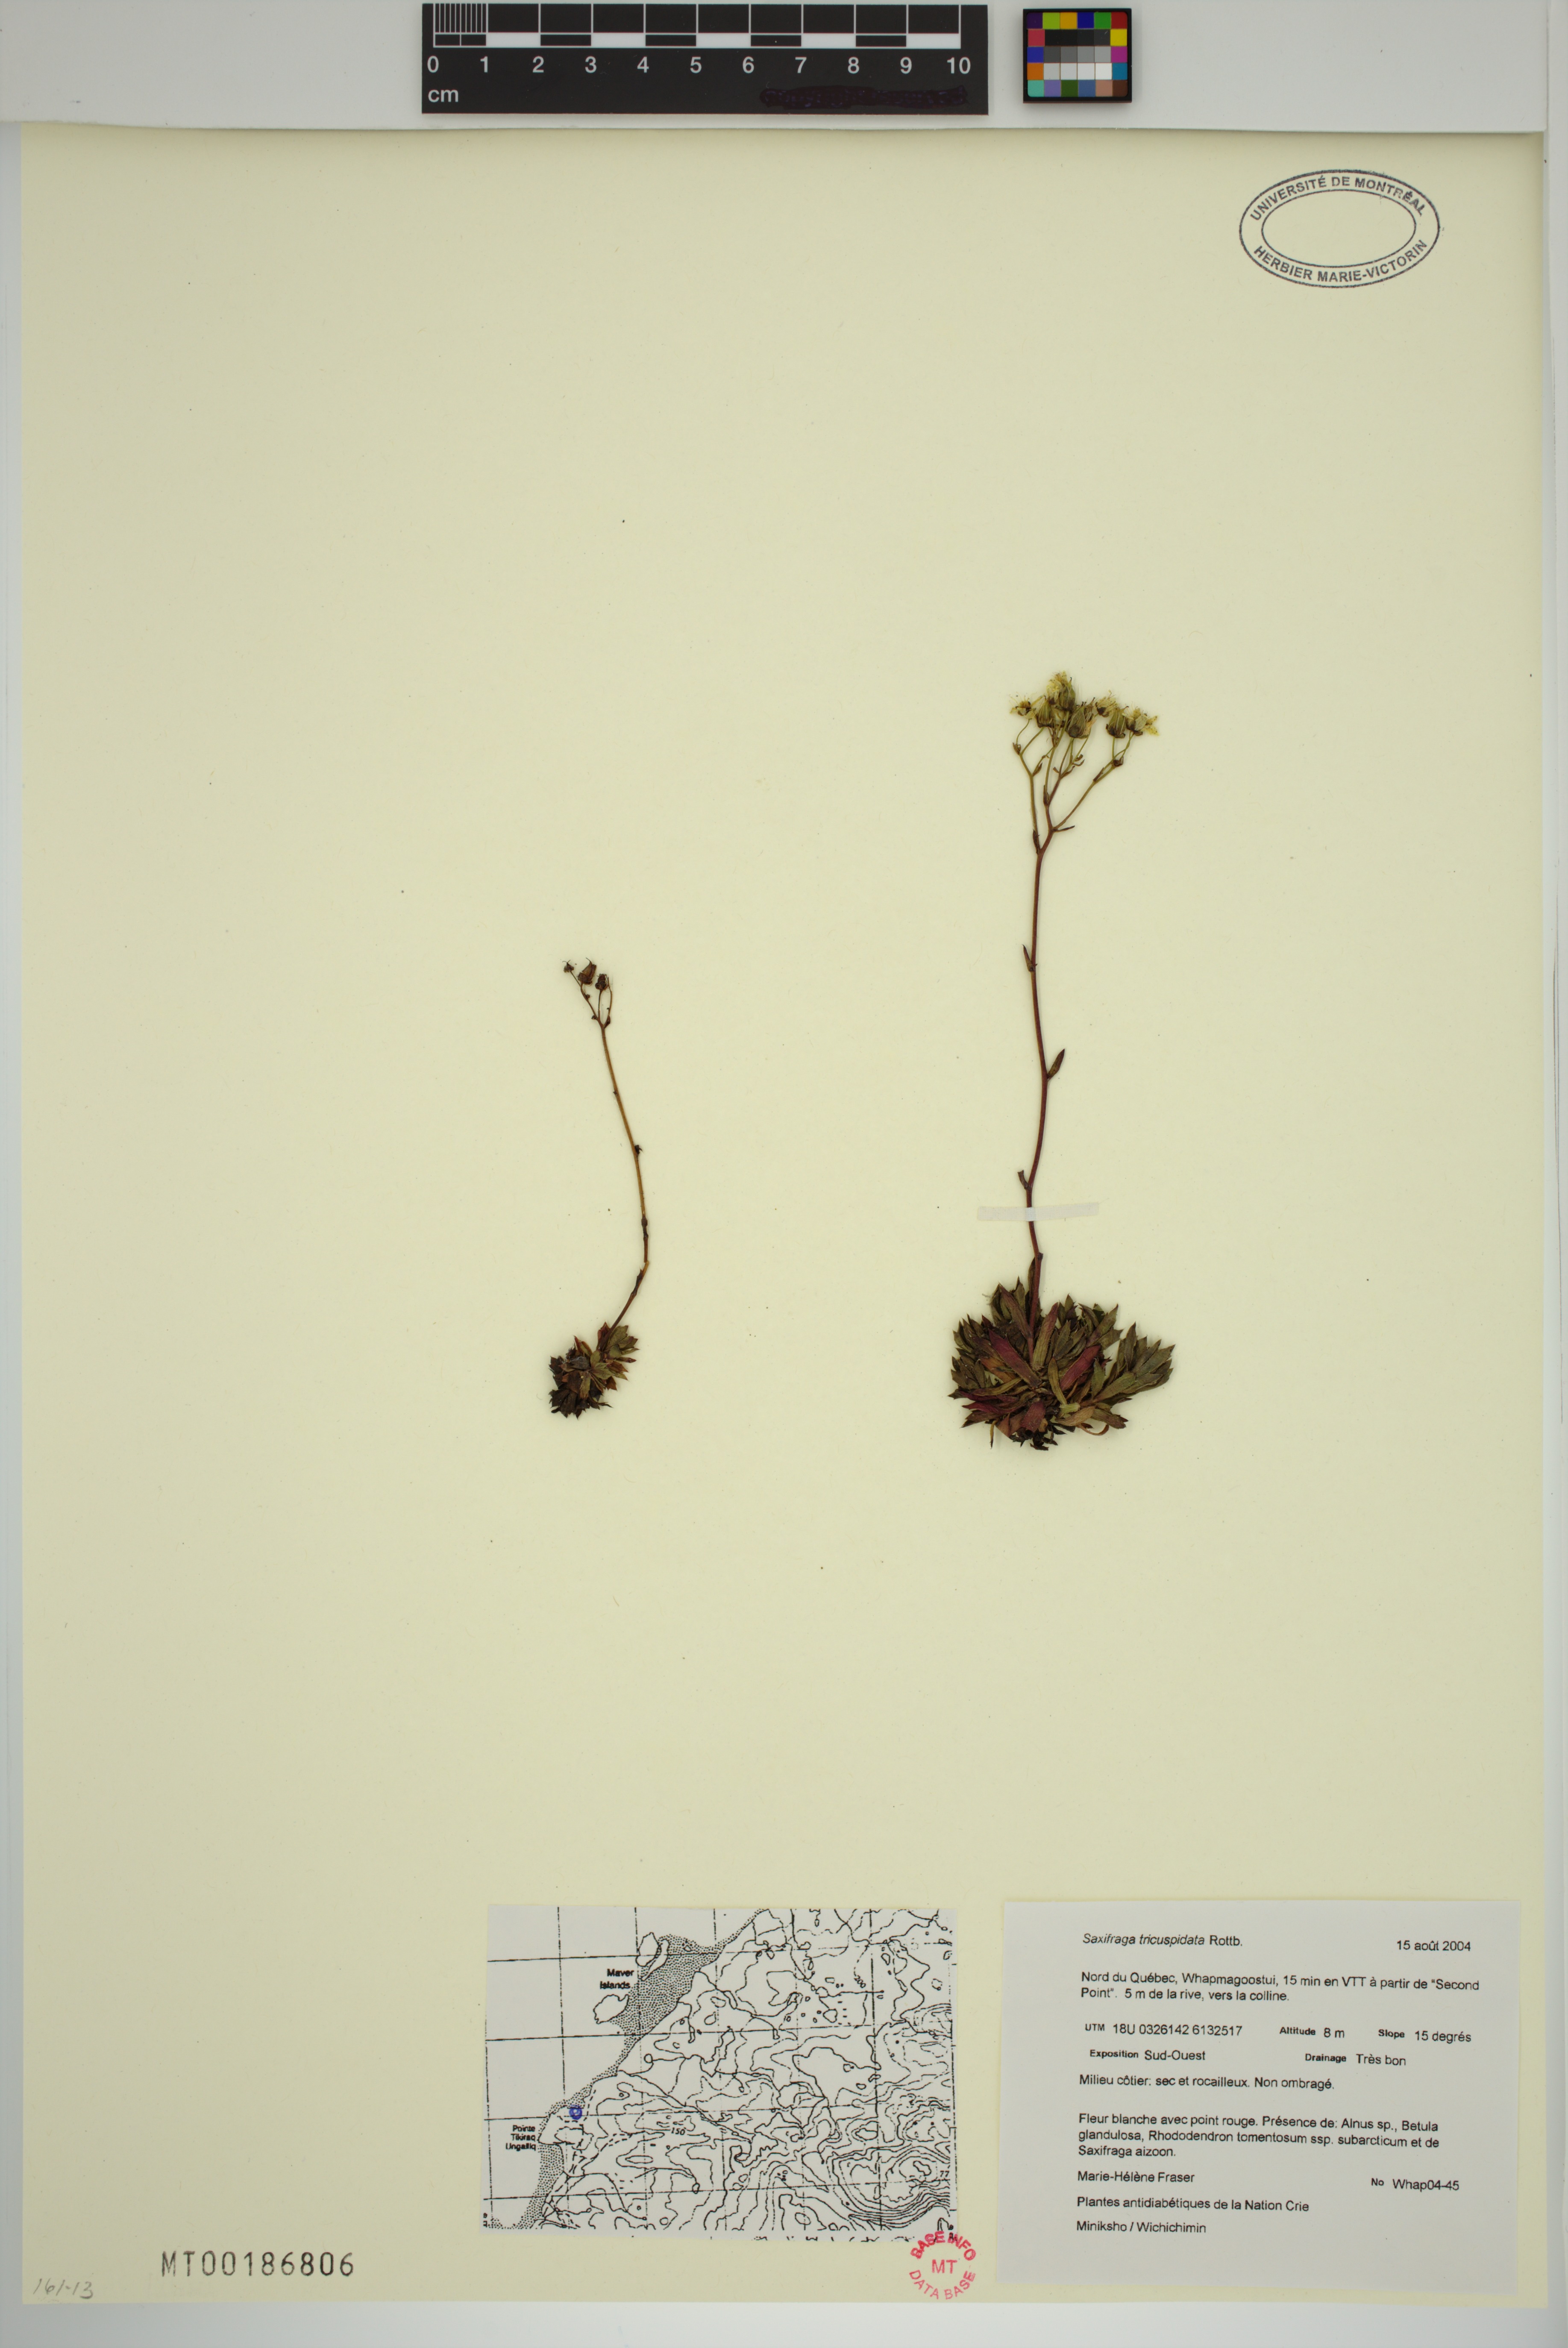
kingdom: Plantae
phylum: Tracheophyta
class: Magnoliopsida
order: Saxifragales
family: Saxifragaceae
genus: Saxifraga
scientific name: Saxifraga tricuspidata
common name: Prickly saxifrage
